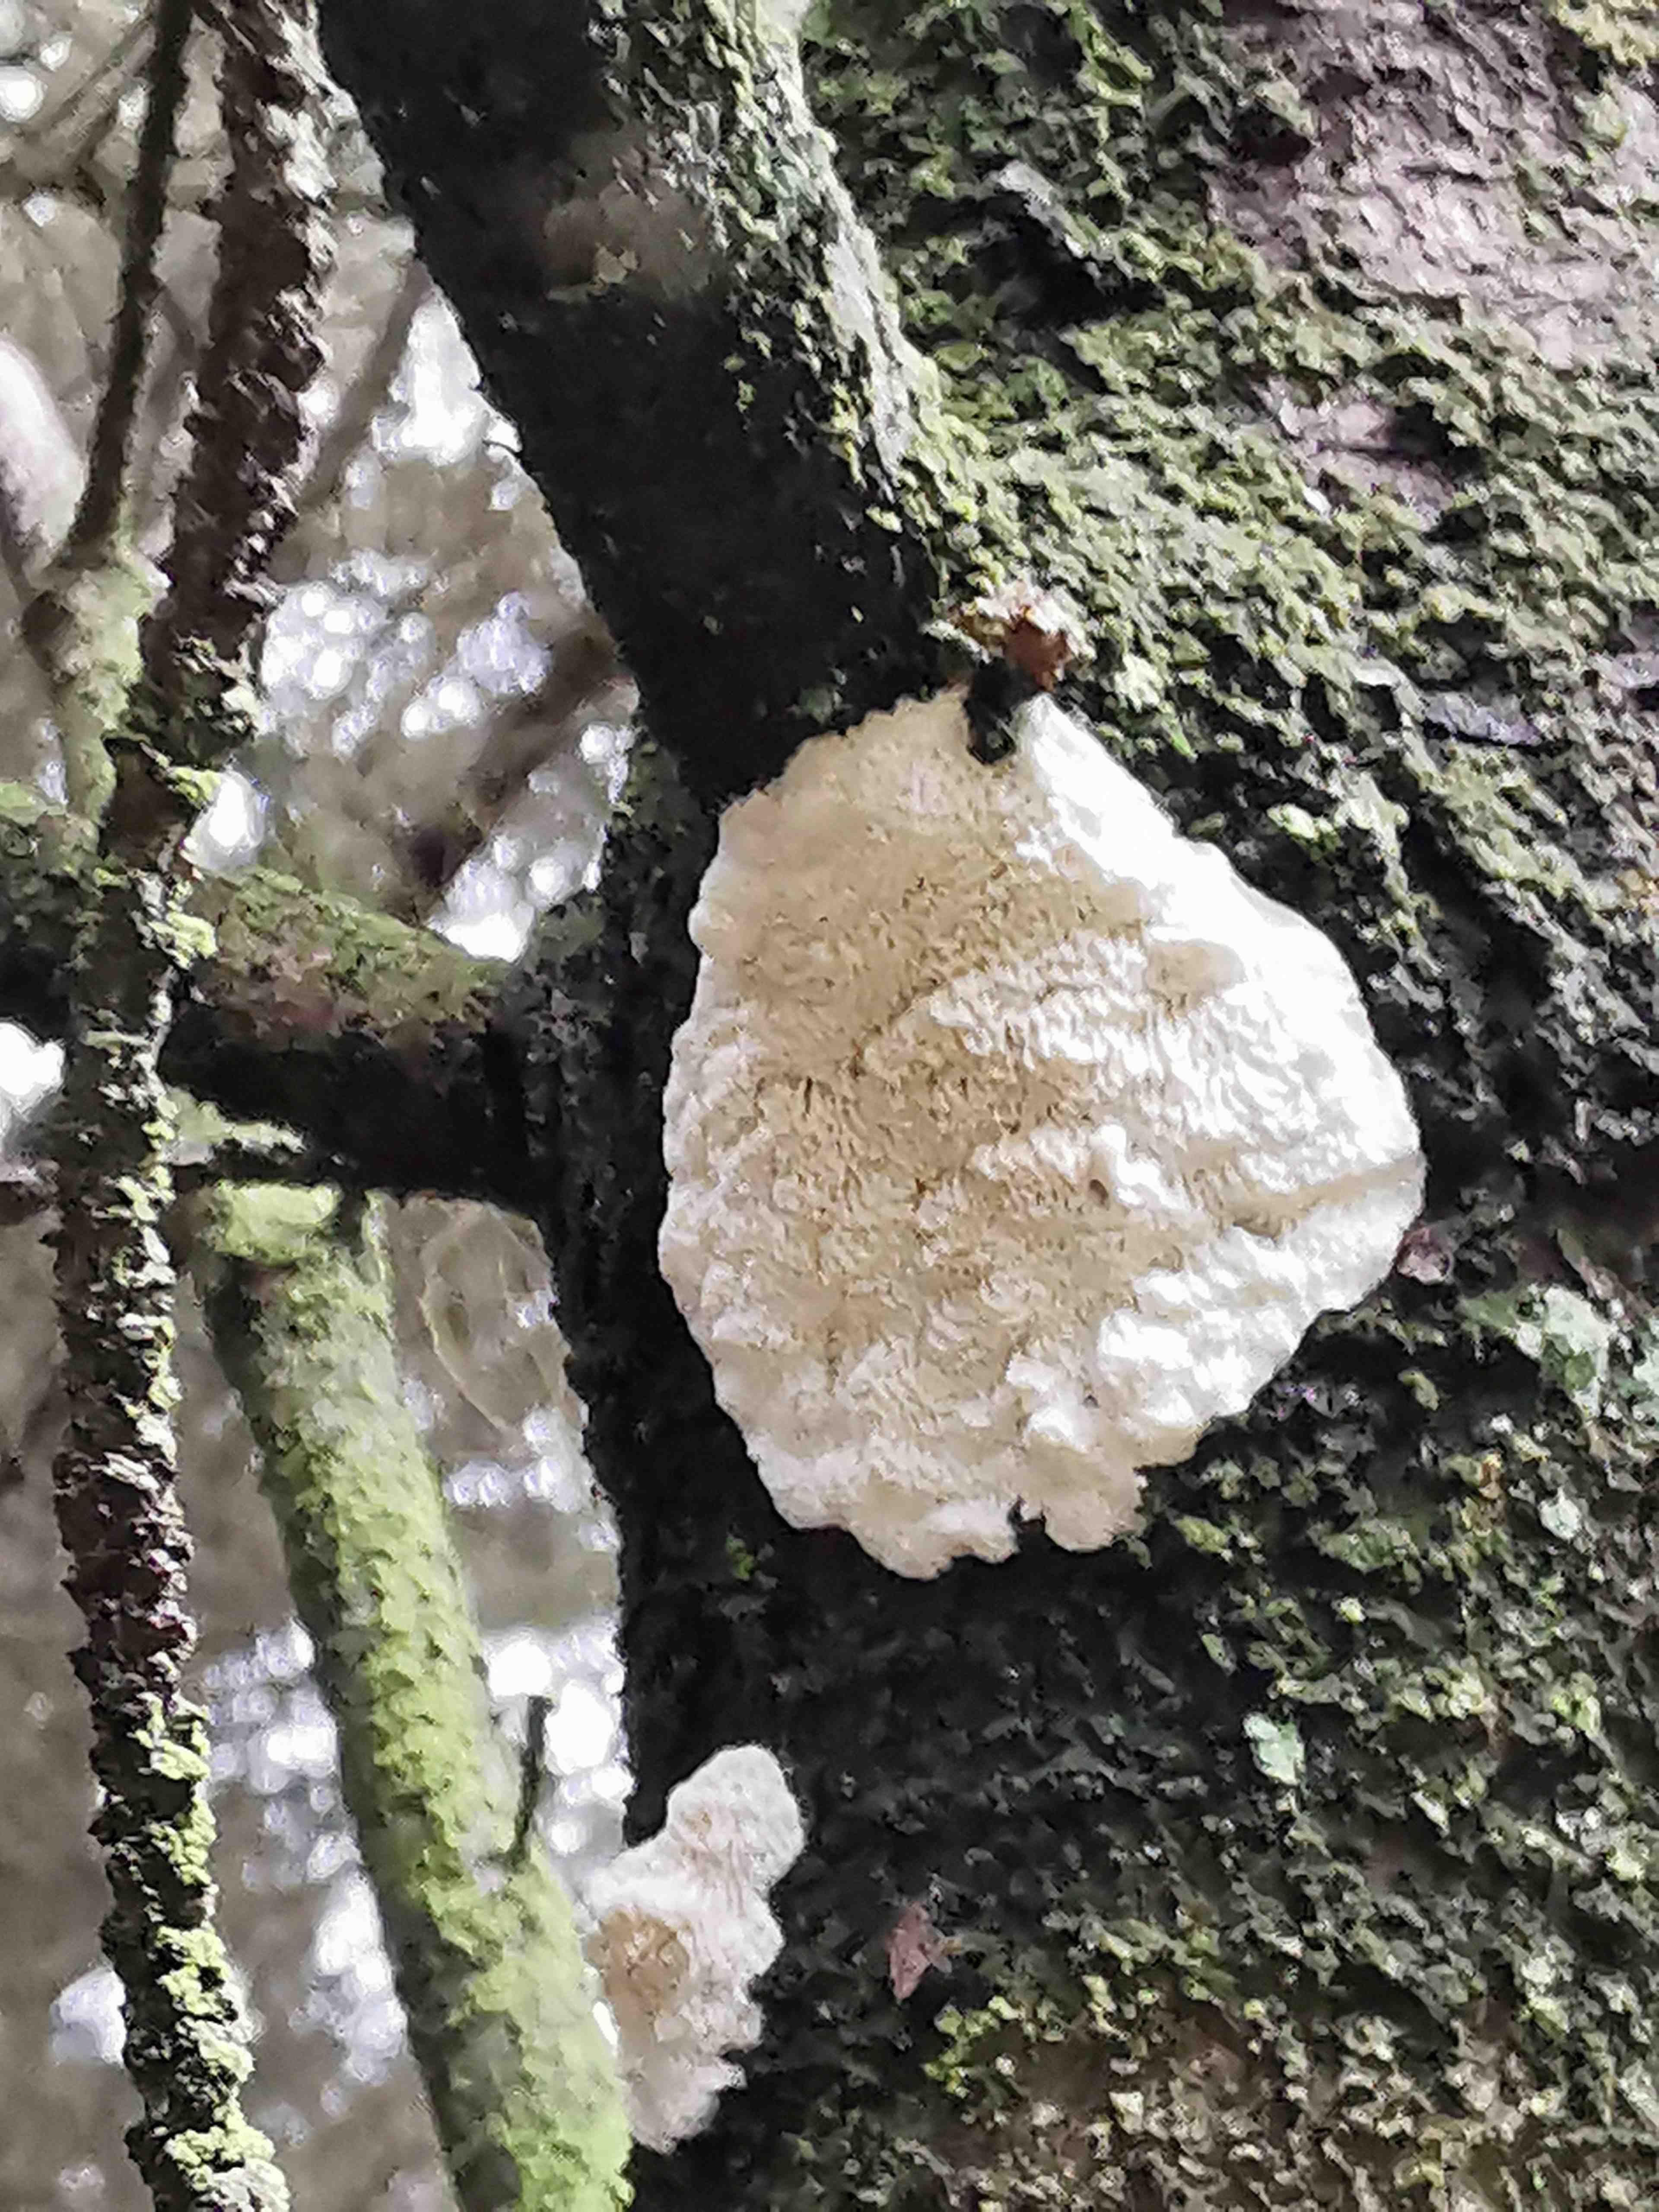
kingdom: Fungi
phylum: Basidiomycota
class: Agaricomycetes
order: Polyporales
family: Fomitopsidaceae
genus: Fomitopsis
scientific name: Fomitopsis
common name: fyrre-skiveporesvamp
